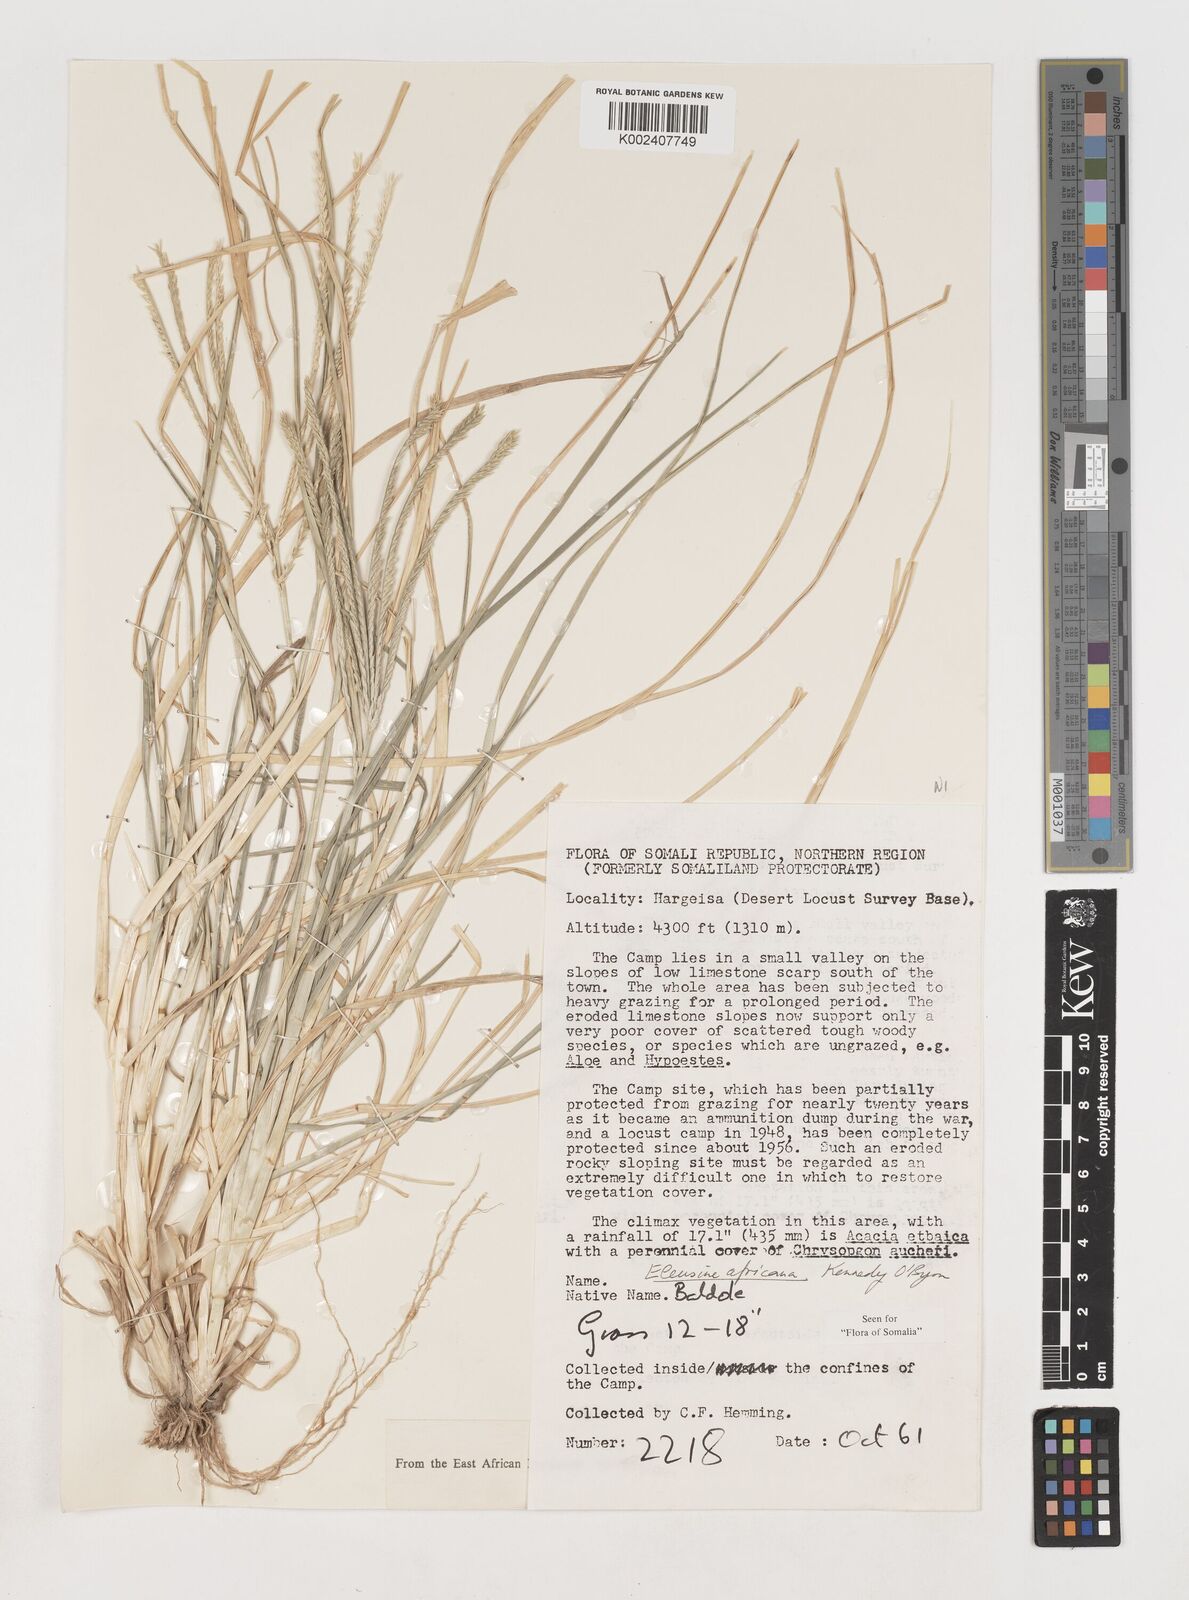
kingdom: Plantae
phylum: Tracheophyta
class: Liliopsida
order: Poales
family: Poaceae
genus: Eleusine
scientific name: Eleusine africana
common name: Wild african finger millet
